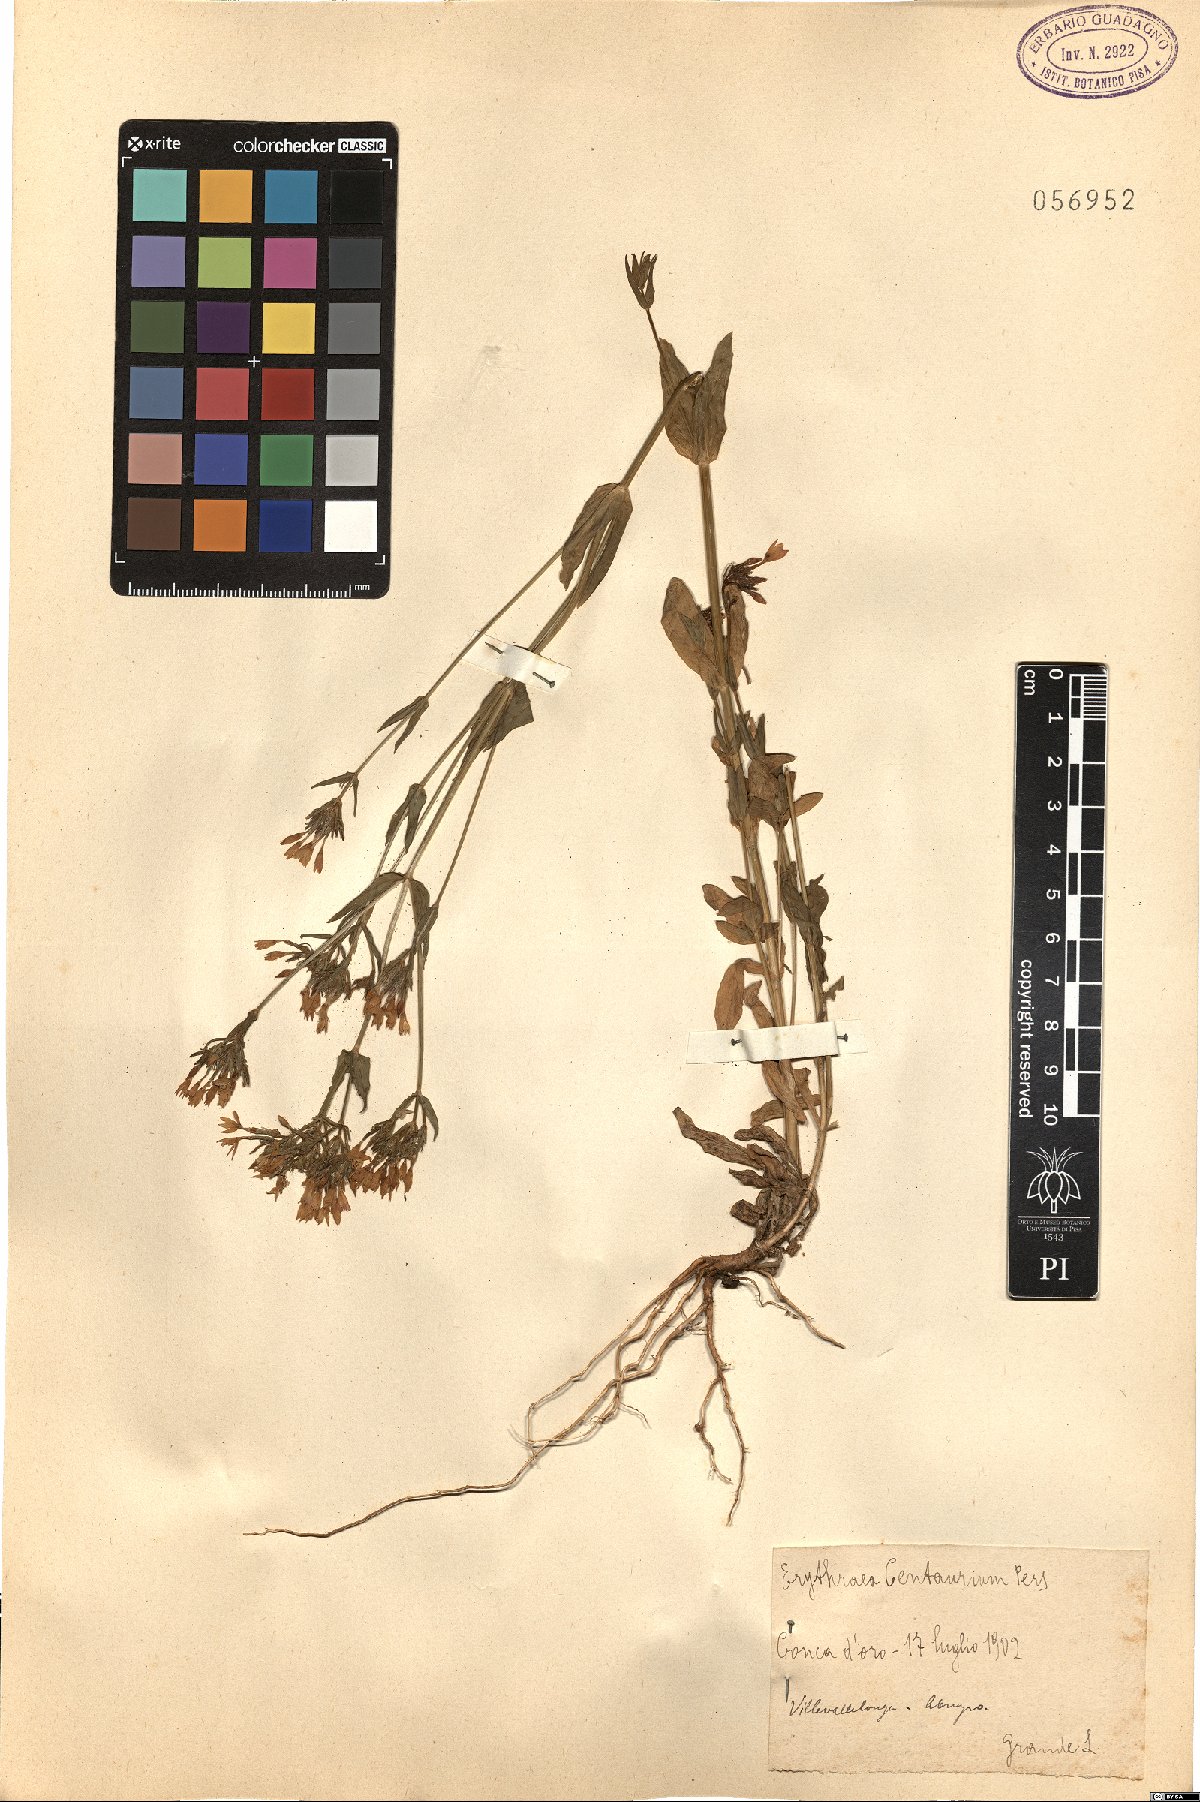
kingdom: Plantae
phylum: Tracheophyta
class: Magnoliopsida
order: Gentianales
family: Gentianaceae
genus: Centaurium
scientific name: Centaurium erythraea
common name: Common centaury
